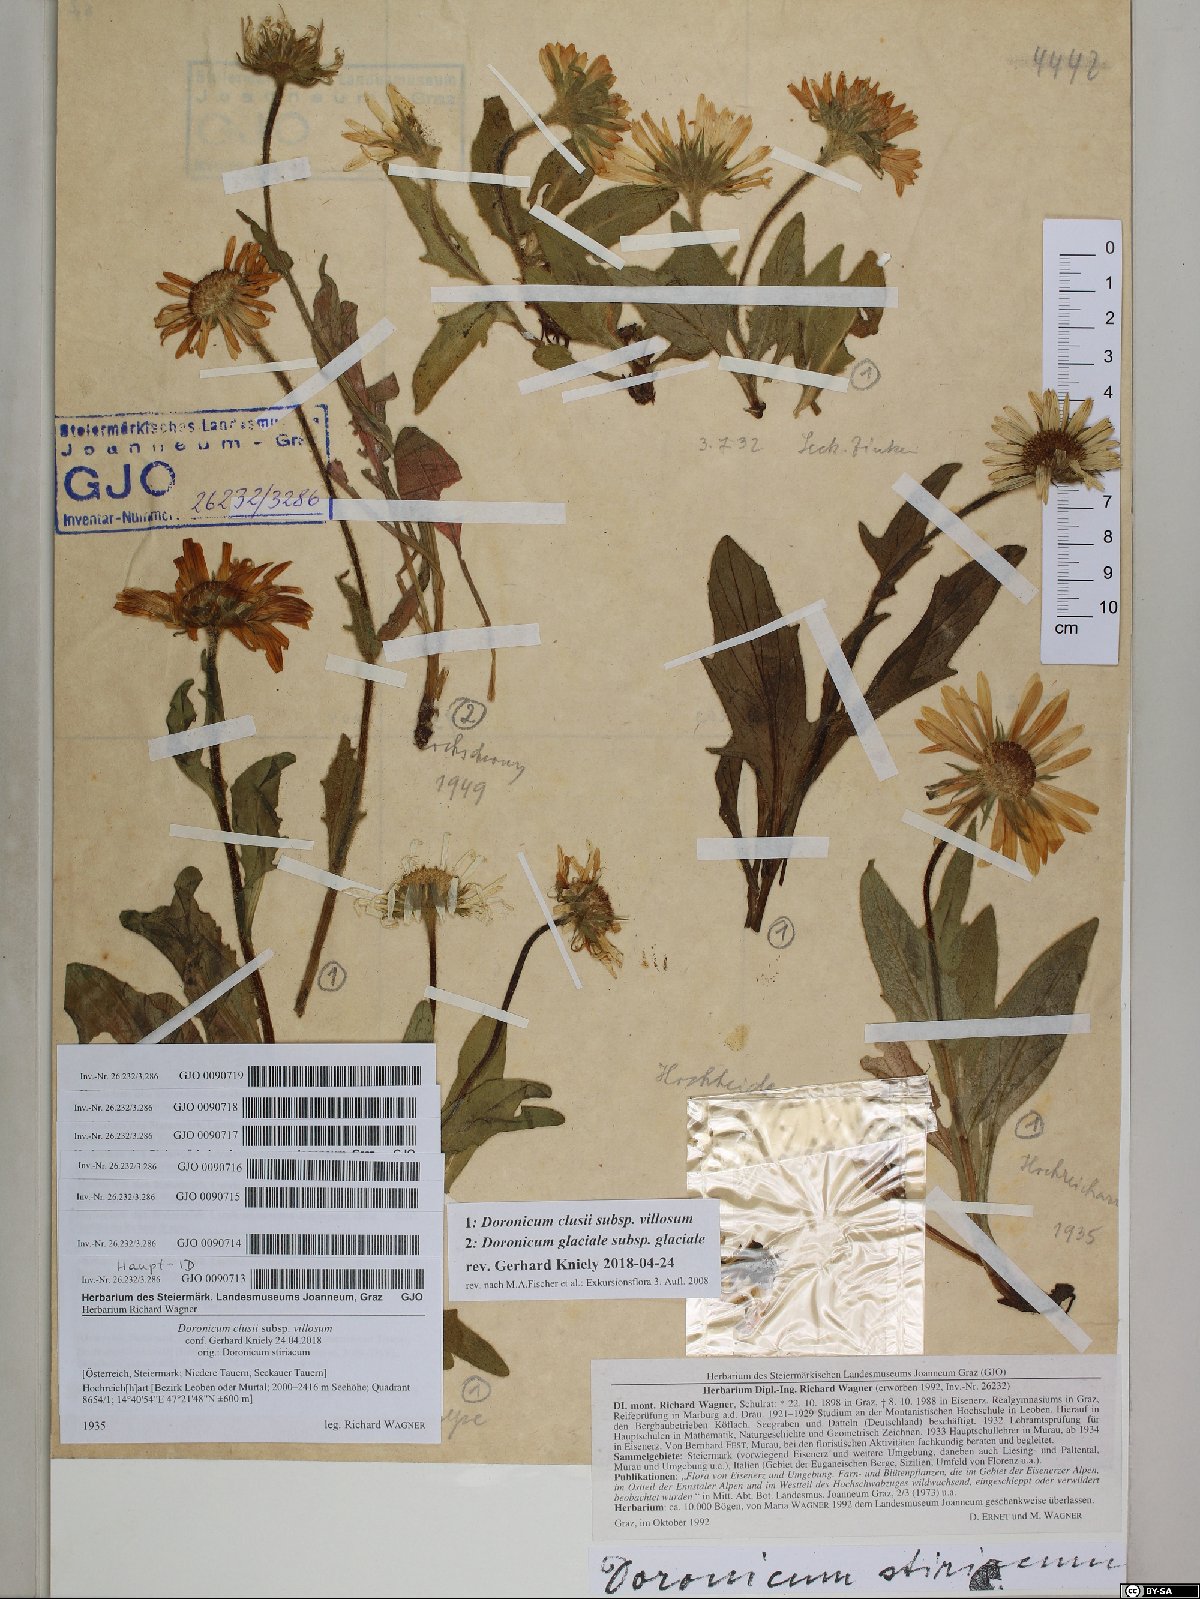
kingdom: Plantae
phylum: Tracheophyta
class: Magnoliopsida
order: Asterales
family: Asteraceae
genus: Doronicum
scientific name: Doronicum clusii
